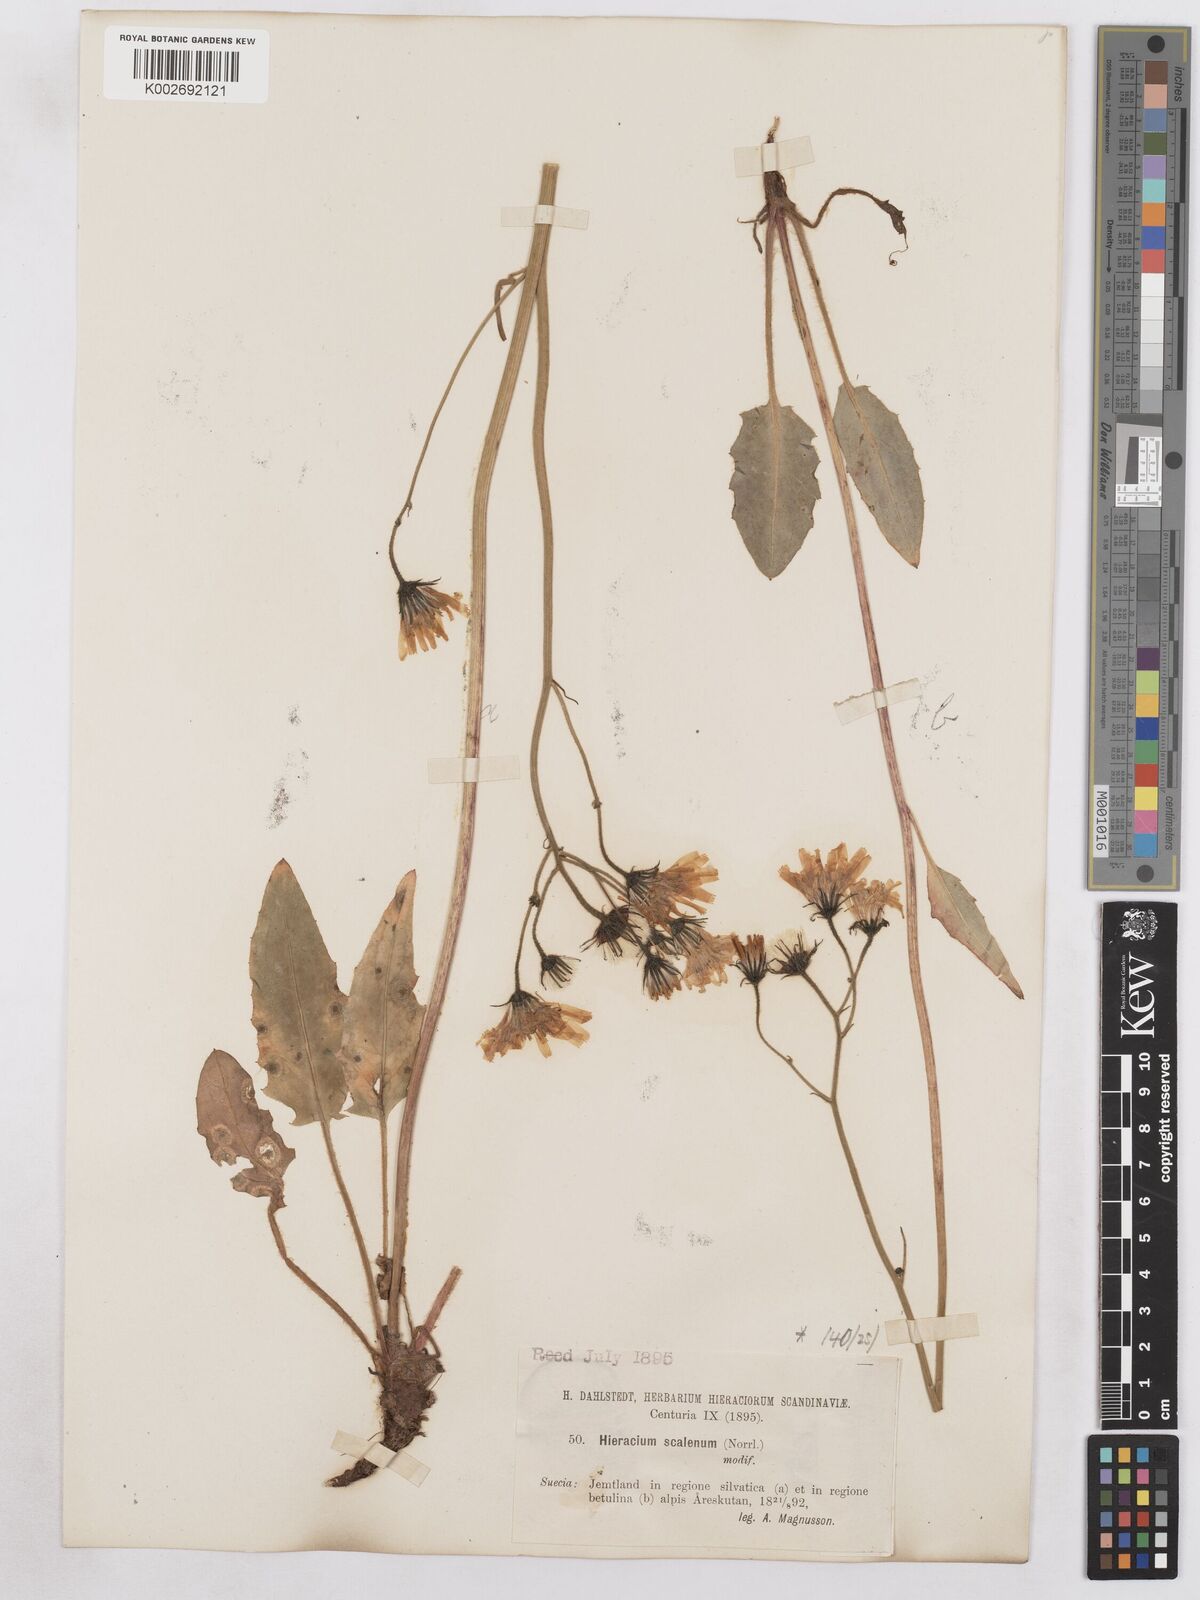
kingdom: Plantae
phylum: Tracheophyta
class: Magnoliopsida
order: Asterales
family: Asteraceae
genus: Hieracium
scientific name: Hieracium fuscocinereum
